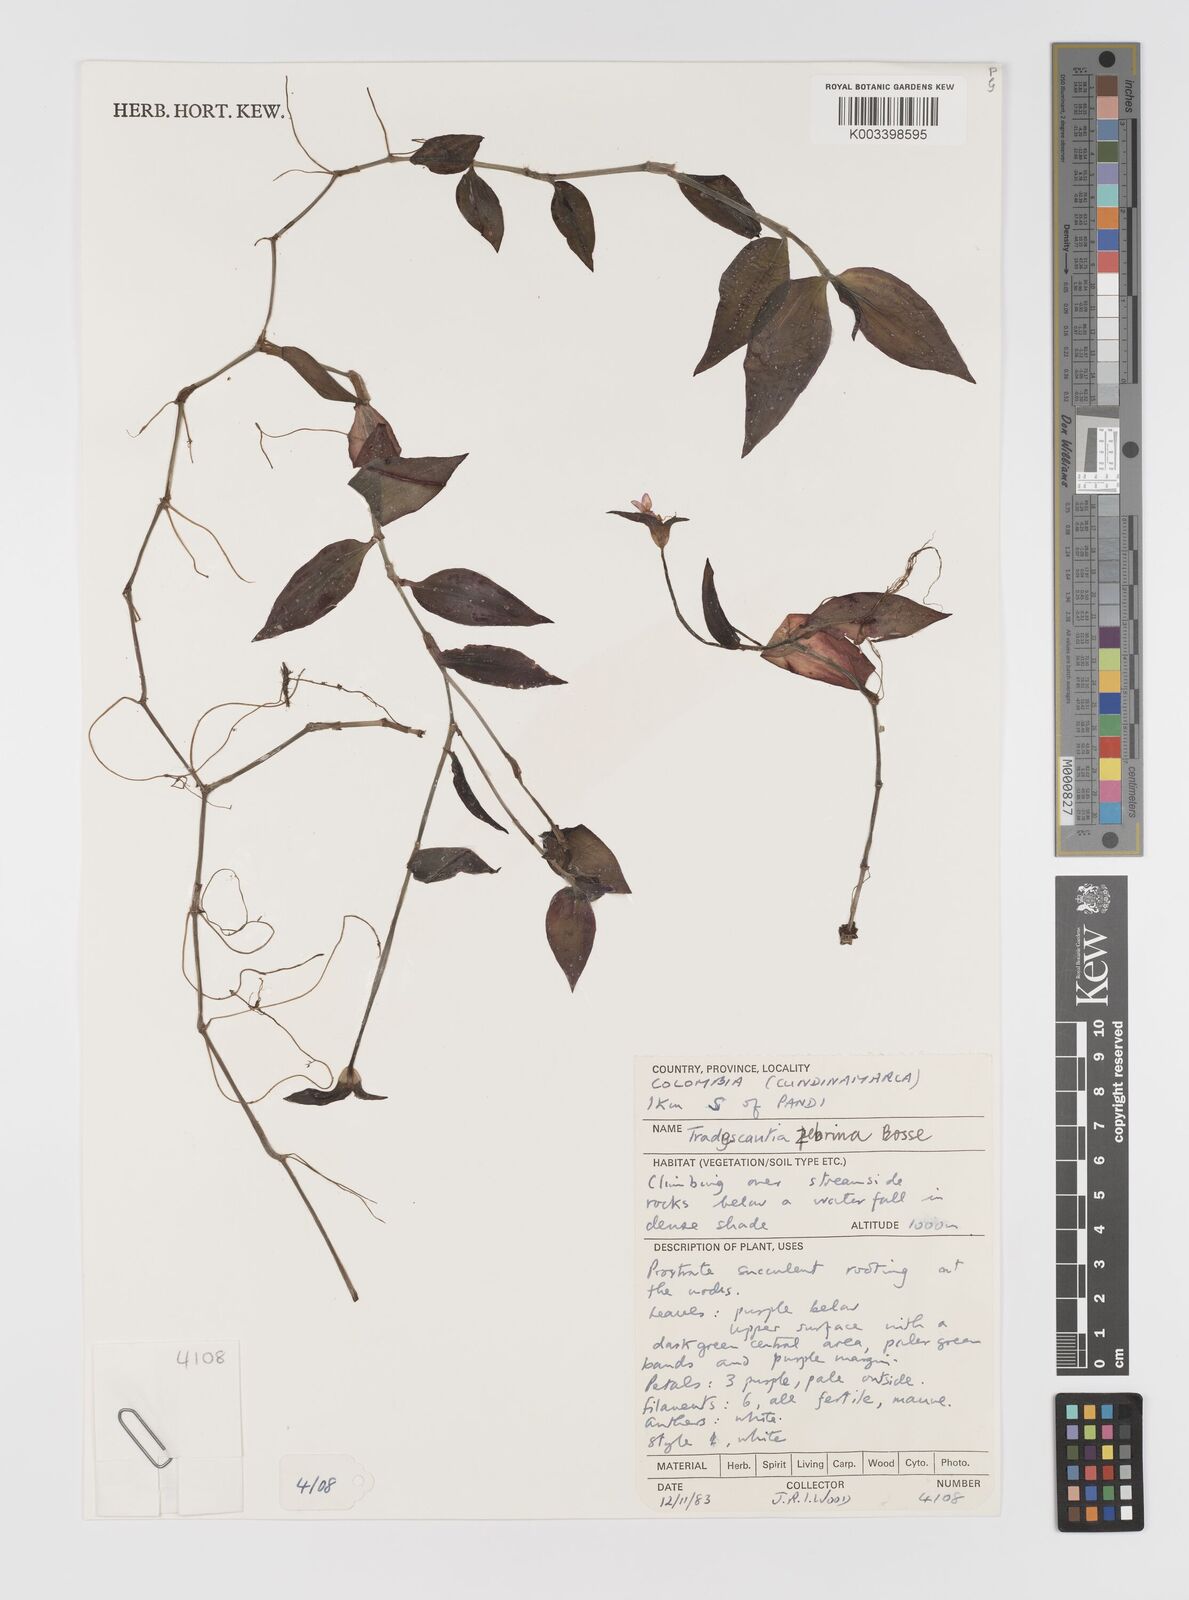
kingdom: Plantae
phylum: Tracheophyta
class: Liliopsida
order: Commelinales
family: Commelinaceae
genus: Tradescantia
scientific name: Tradescantia zebrina
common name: Inchplant
